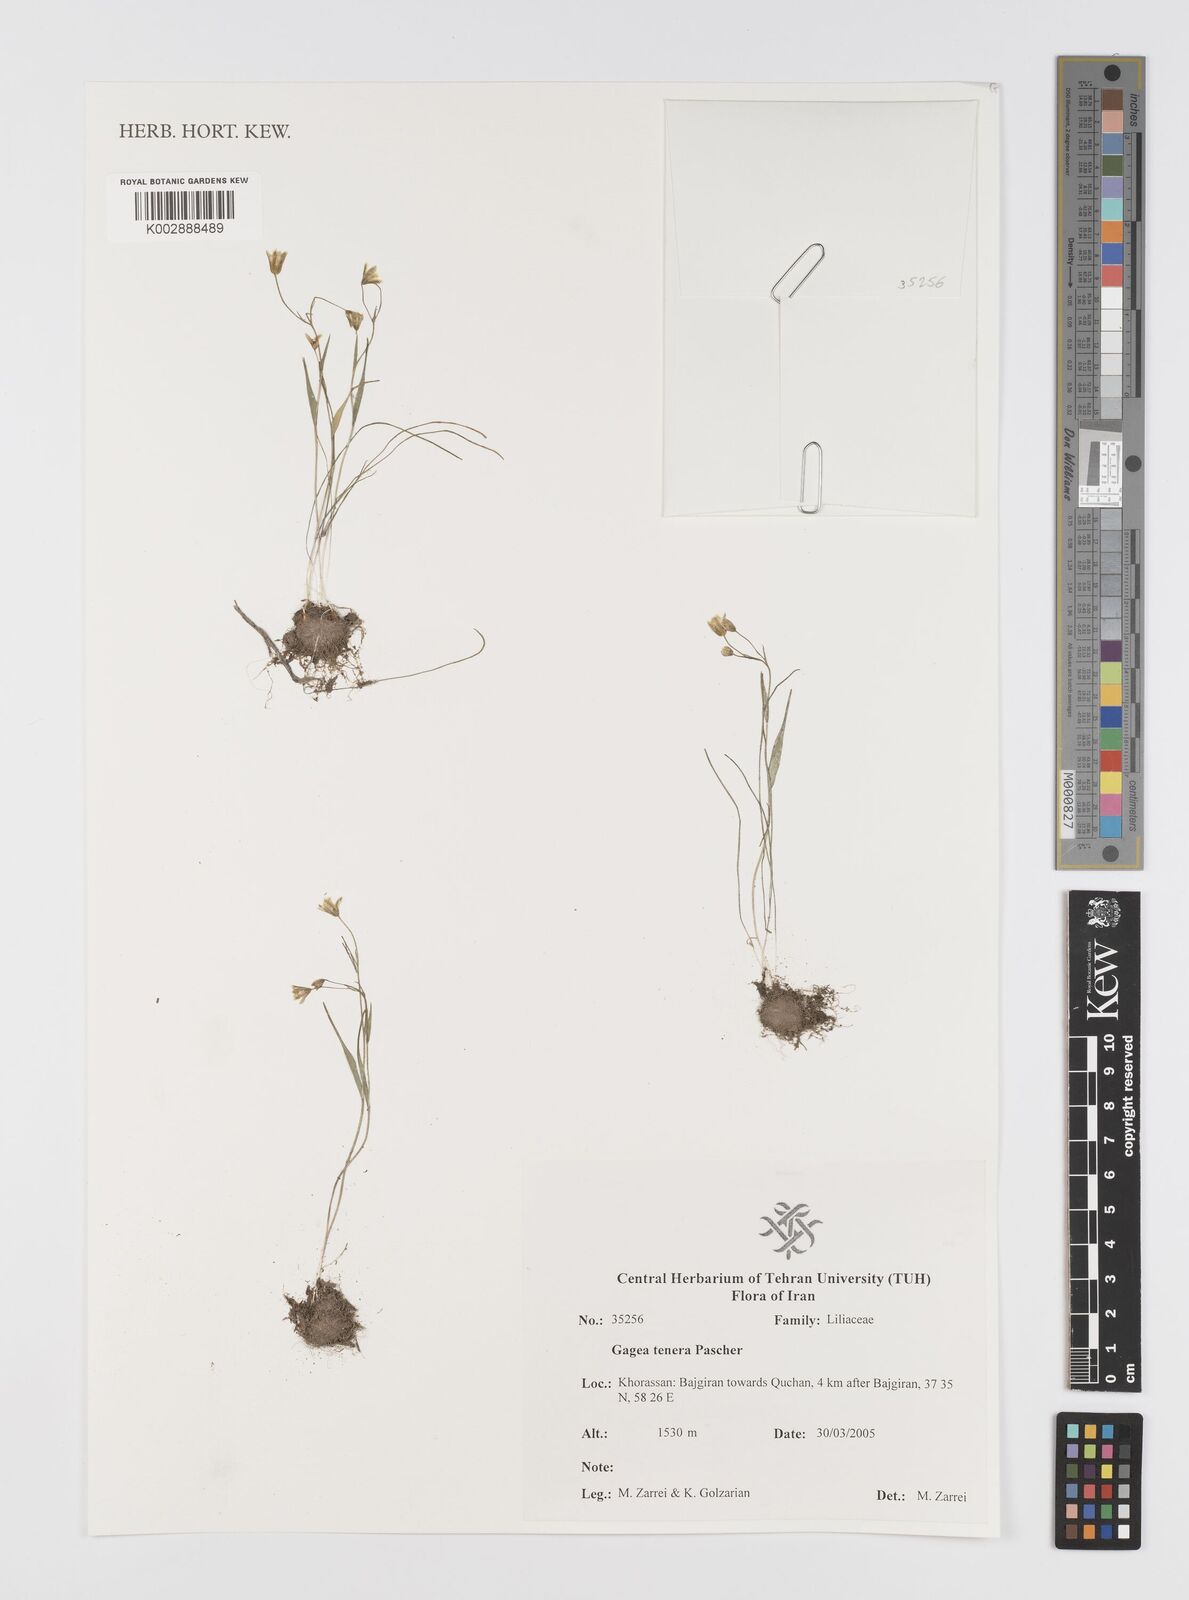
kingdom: Plantae
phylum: Tracheophyta
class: Liliopsida
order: Liliales
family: Liliaceae
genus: Gagea
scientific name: Gagea tenera
